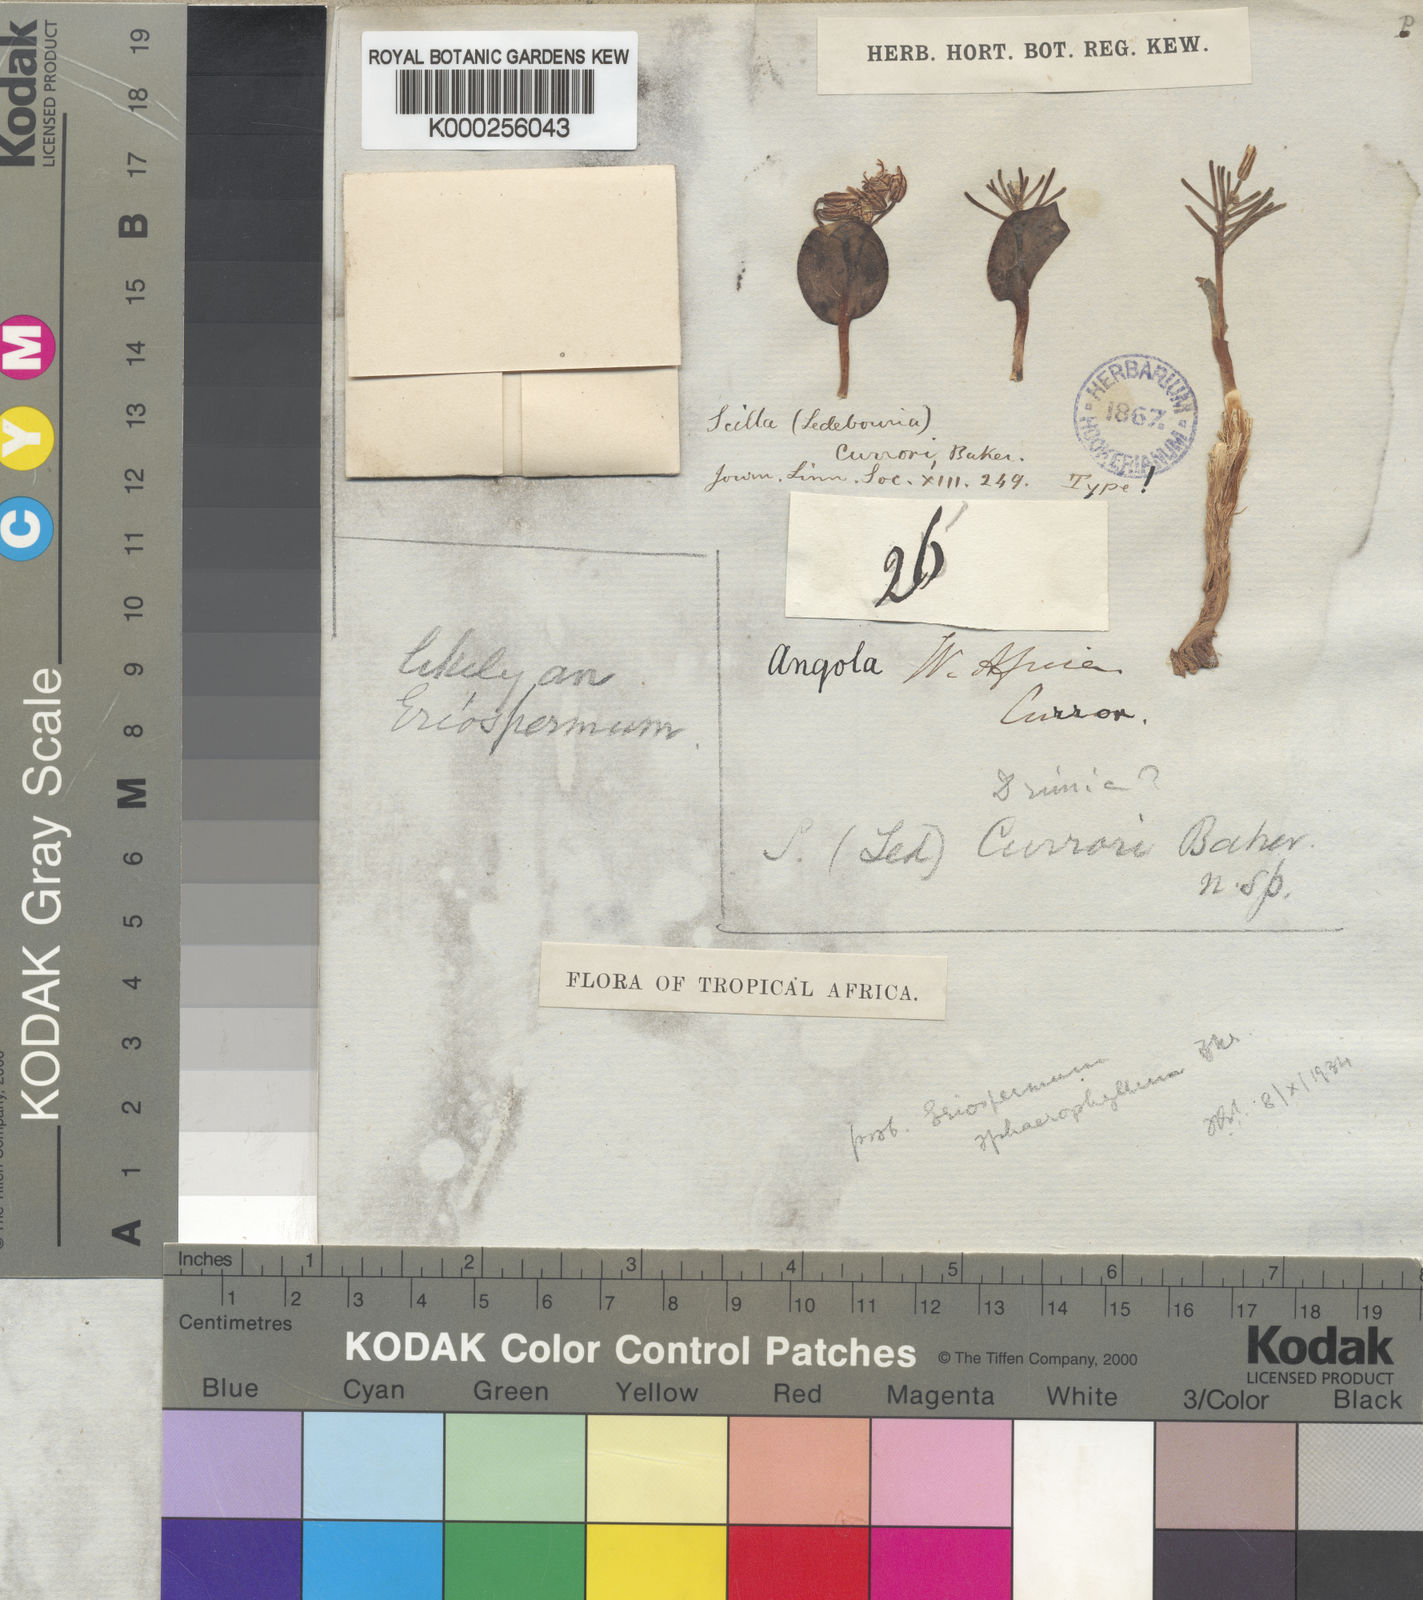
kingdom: Plantae
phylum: Tracheophyta
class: Liliopsida
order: Asparagales
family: Asparagaceae
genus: Eriospermum
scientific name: Eriospermum currorii
